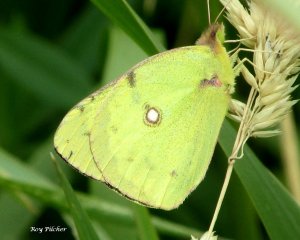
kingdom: Animalia
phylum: Arthropoda
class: Insecta
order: Lepidoptera
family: Pieridae
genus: Colias
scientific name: Colias philodice
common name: Clouded Sulphur
